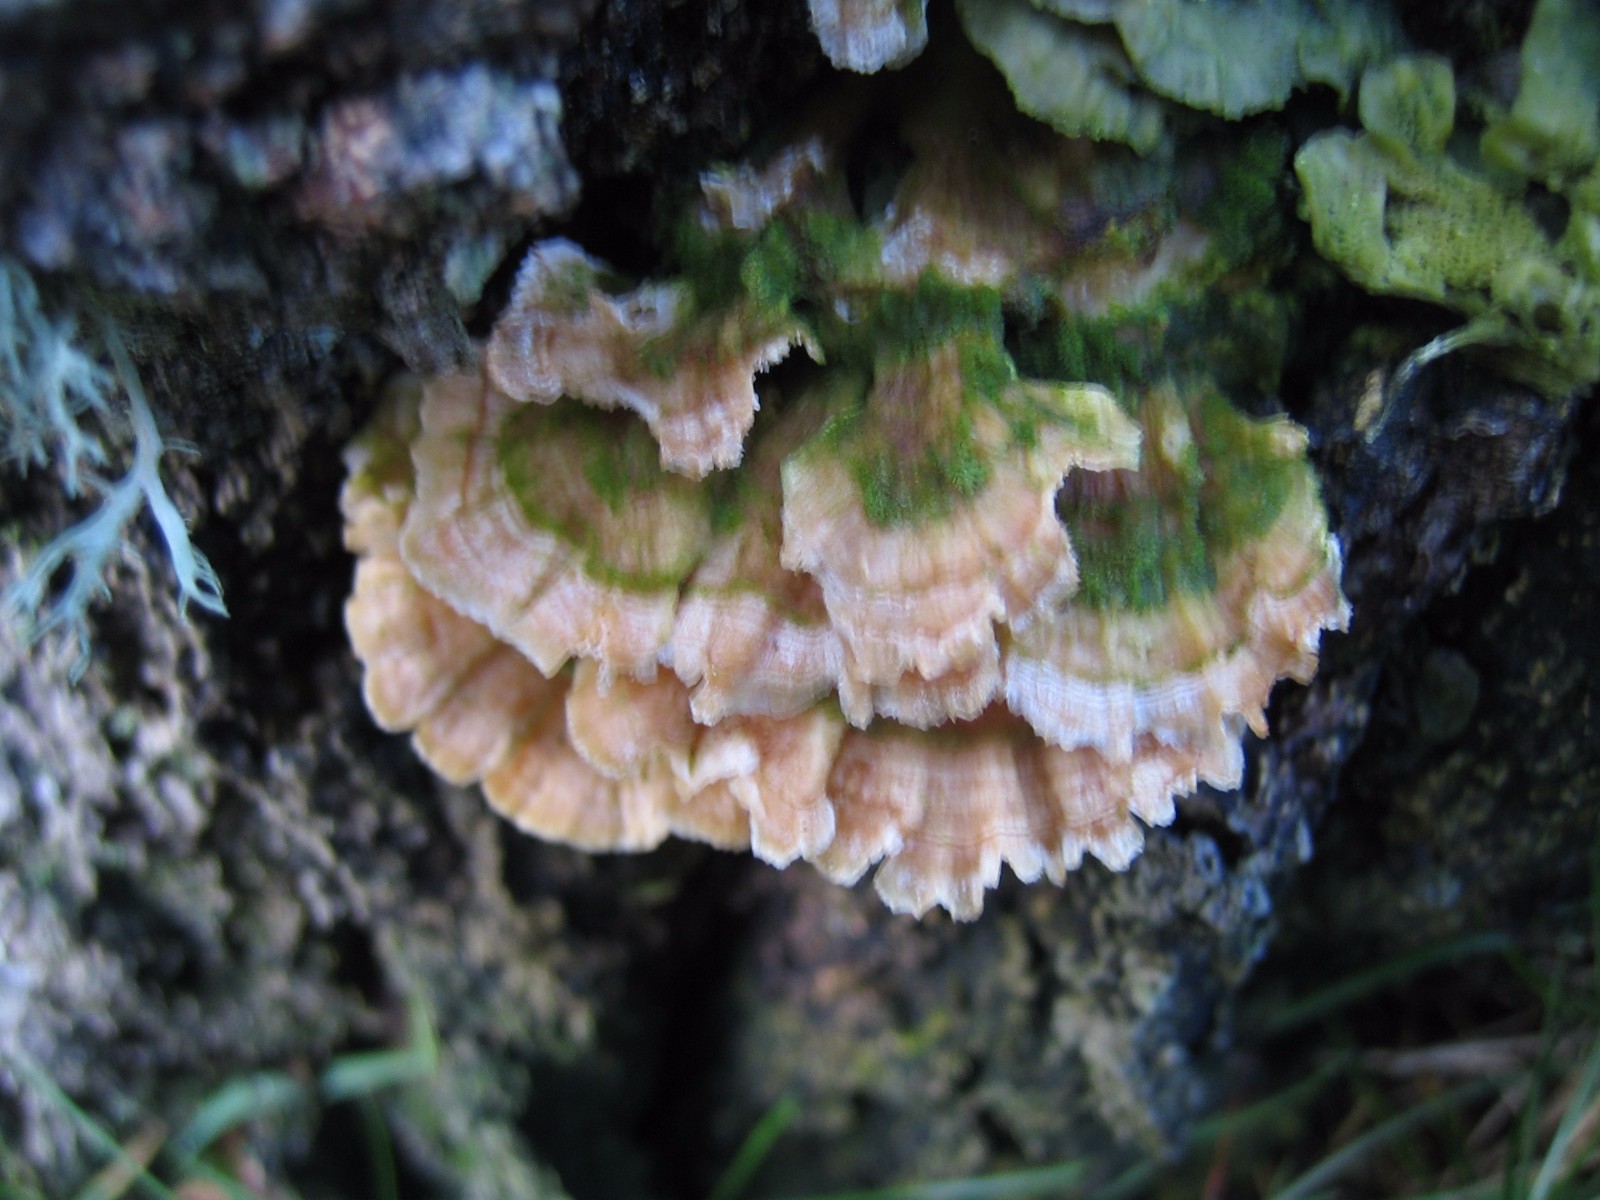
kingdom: Fungi
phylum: Basidiomycota
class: Agaricomycetes
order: Polyporales
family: Polyporaceae
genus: Trametes
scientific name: Trametes ochracea
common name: bæltet læderporesvamp
